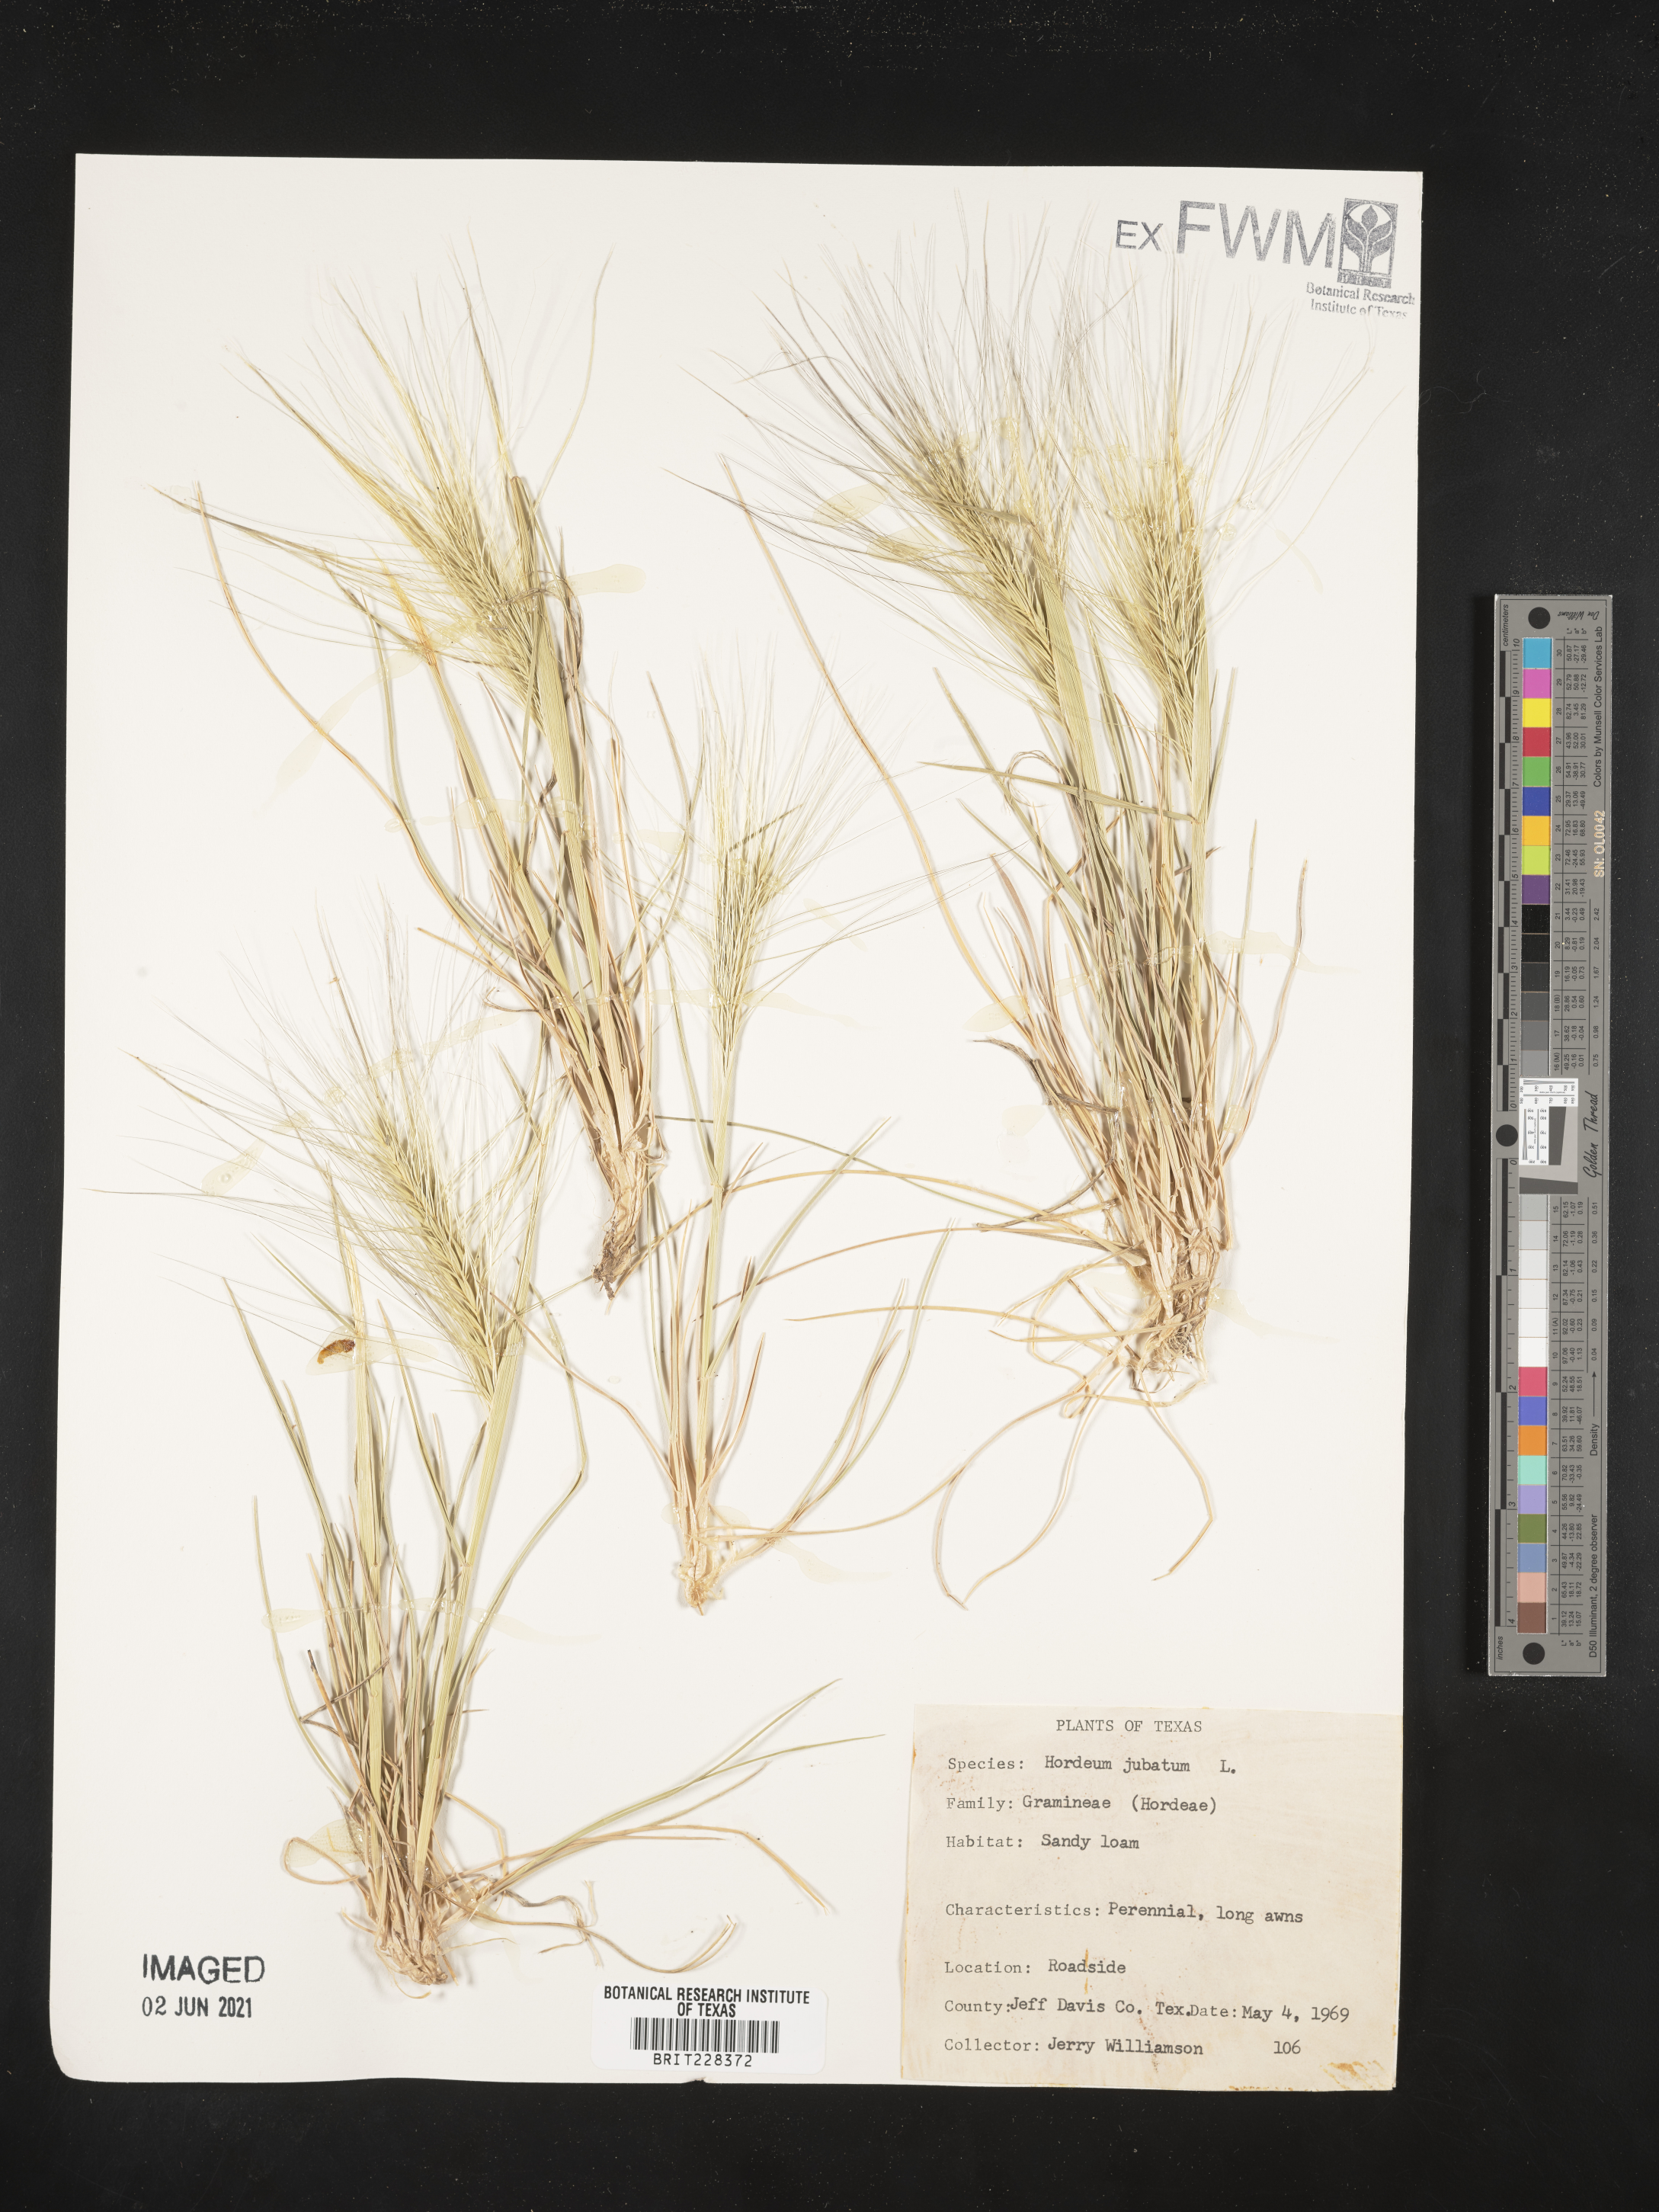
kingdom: Plantae
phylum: Tracheophyta
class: Liliopsida
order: Poales
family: Poaceae
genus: Hordeum
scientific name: Hordeum jubatum
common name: Foxtail barley
